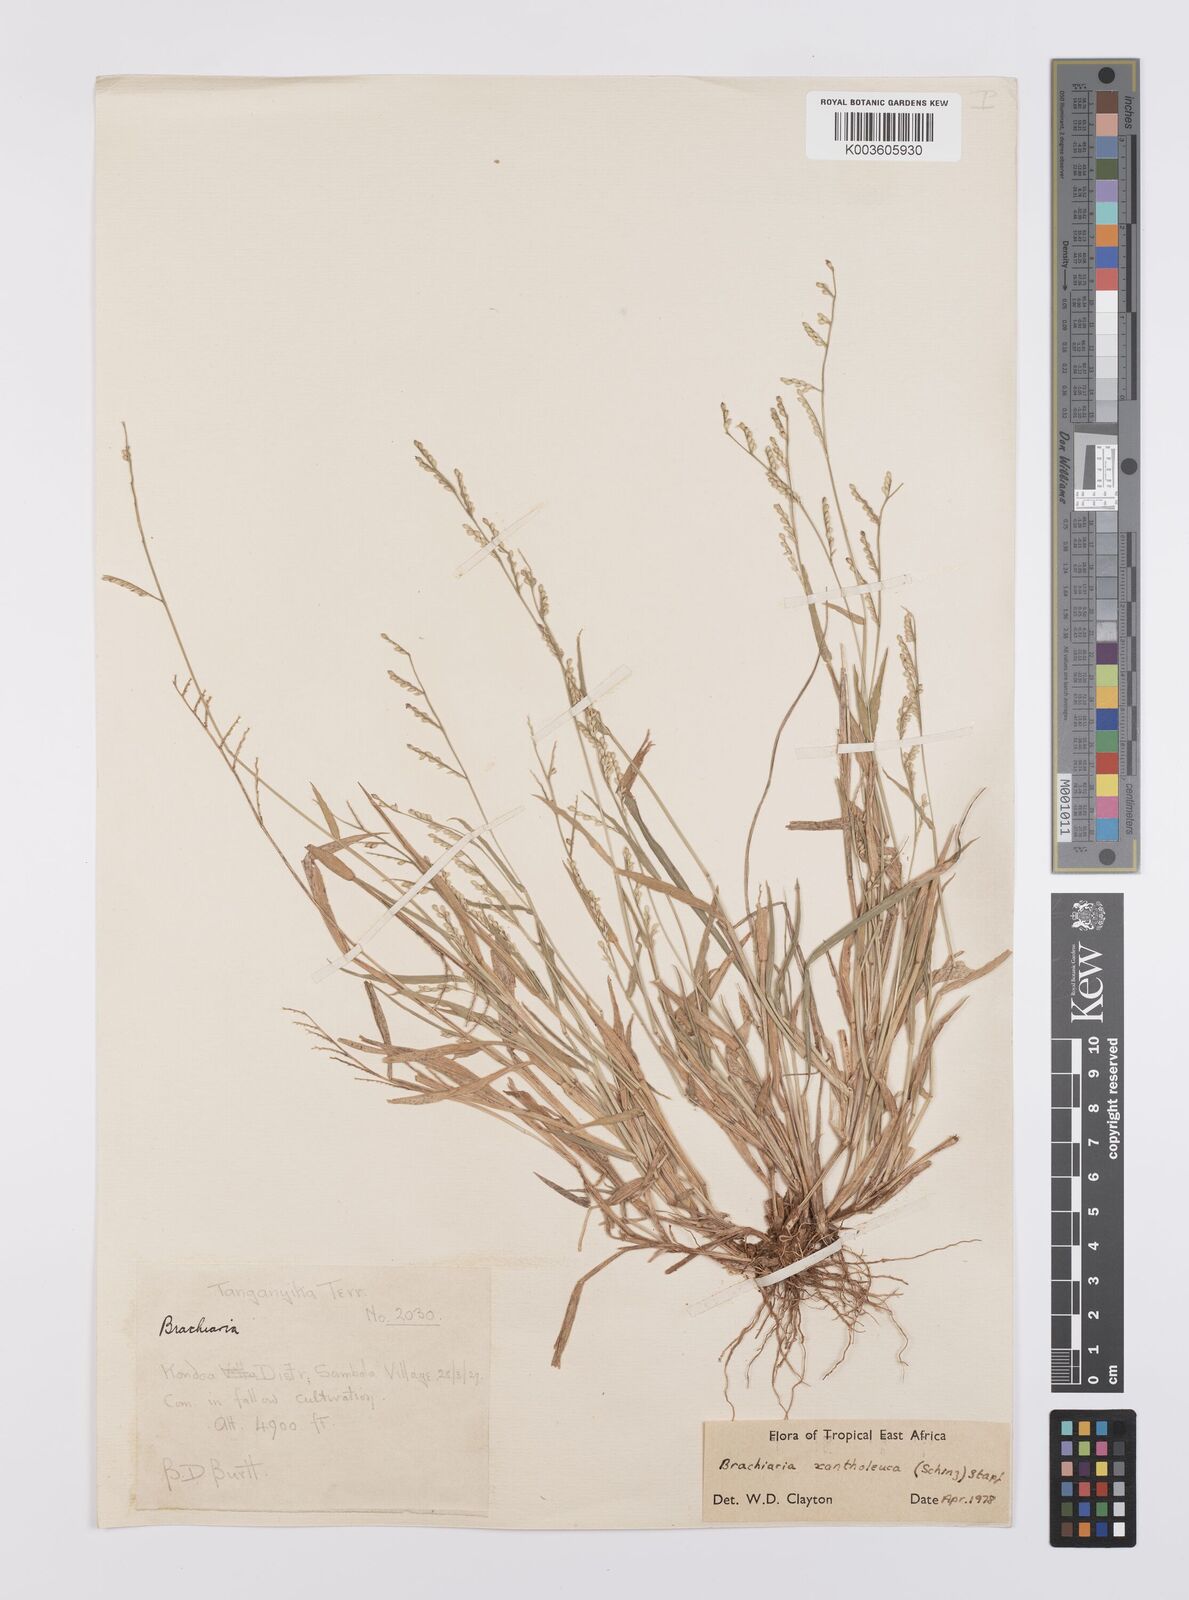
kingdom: Plantae
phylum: Tracheophyta
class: Liliopsida
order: Poales
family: Poaceae
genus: Urochloa
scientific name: Urochloa xantholeuca
